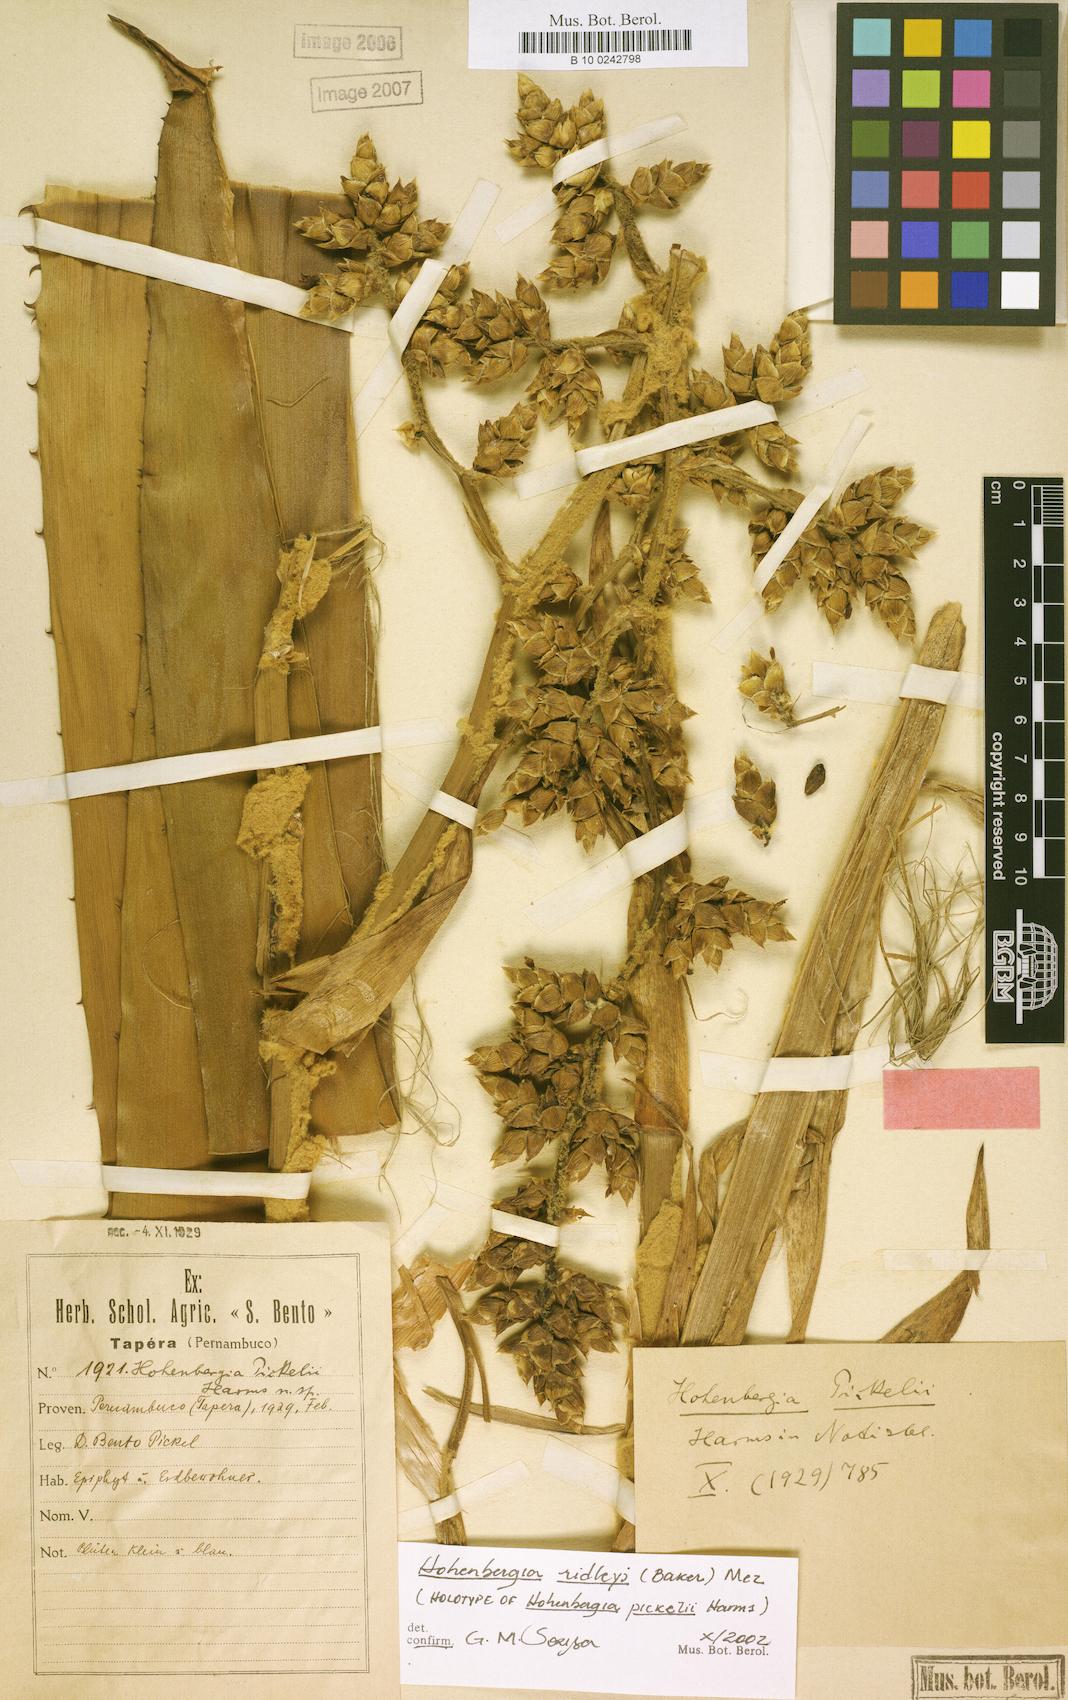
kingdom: Plantae
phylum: Tracheophyta
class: Liliopsida
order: Poales
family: Bromeliaceae
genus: Hohenbergia
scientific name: Hohenbergia ridleyi
